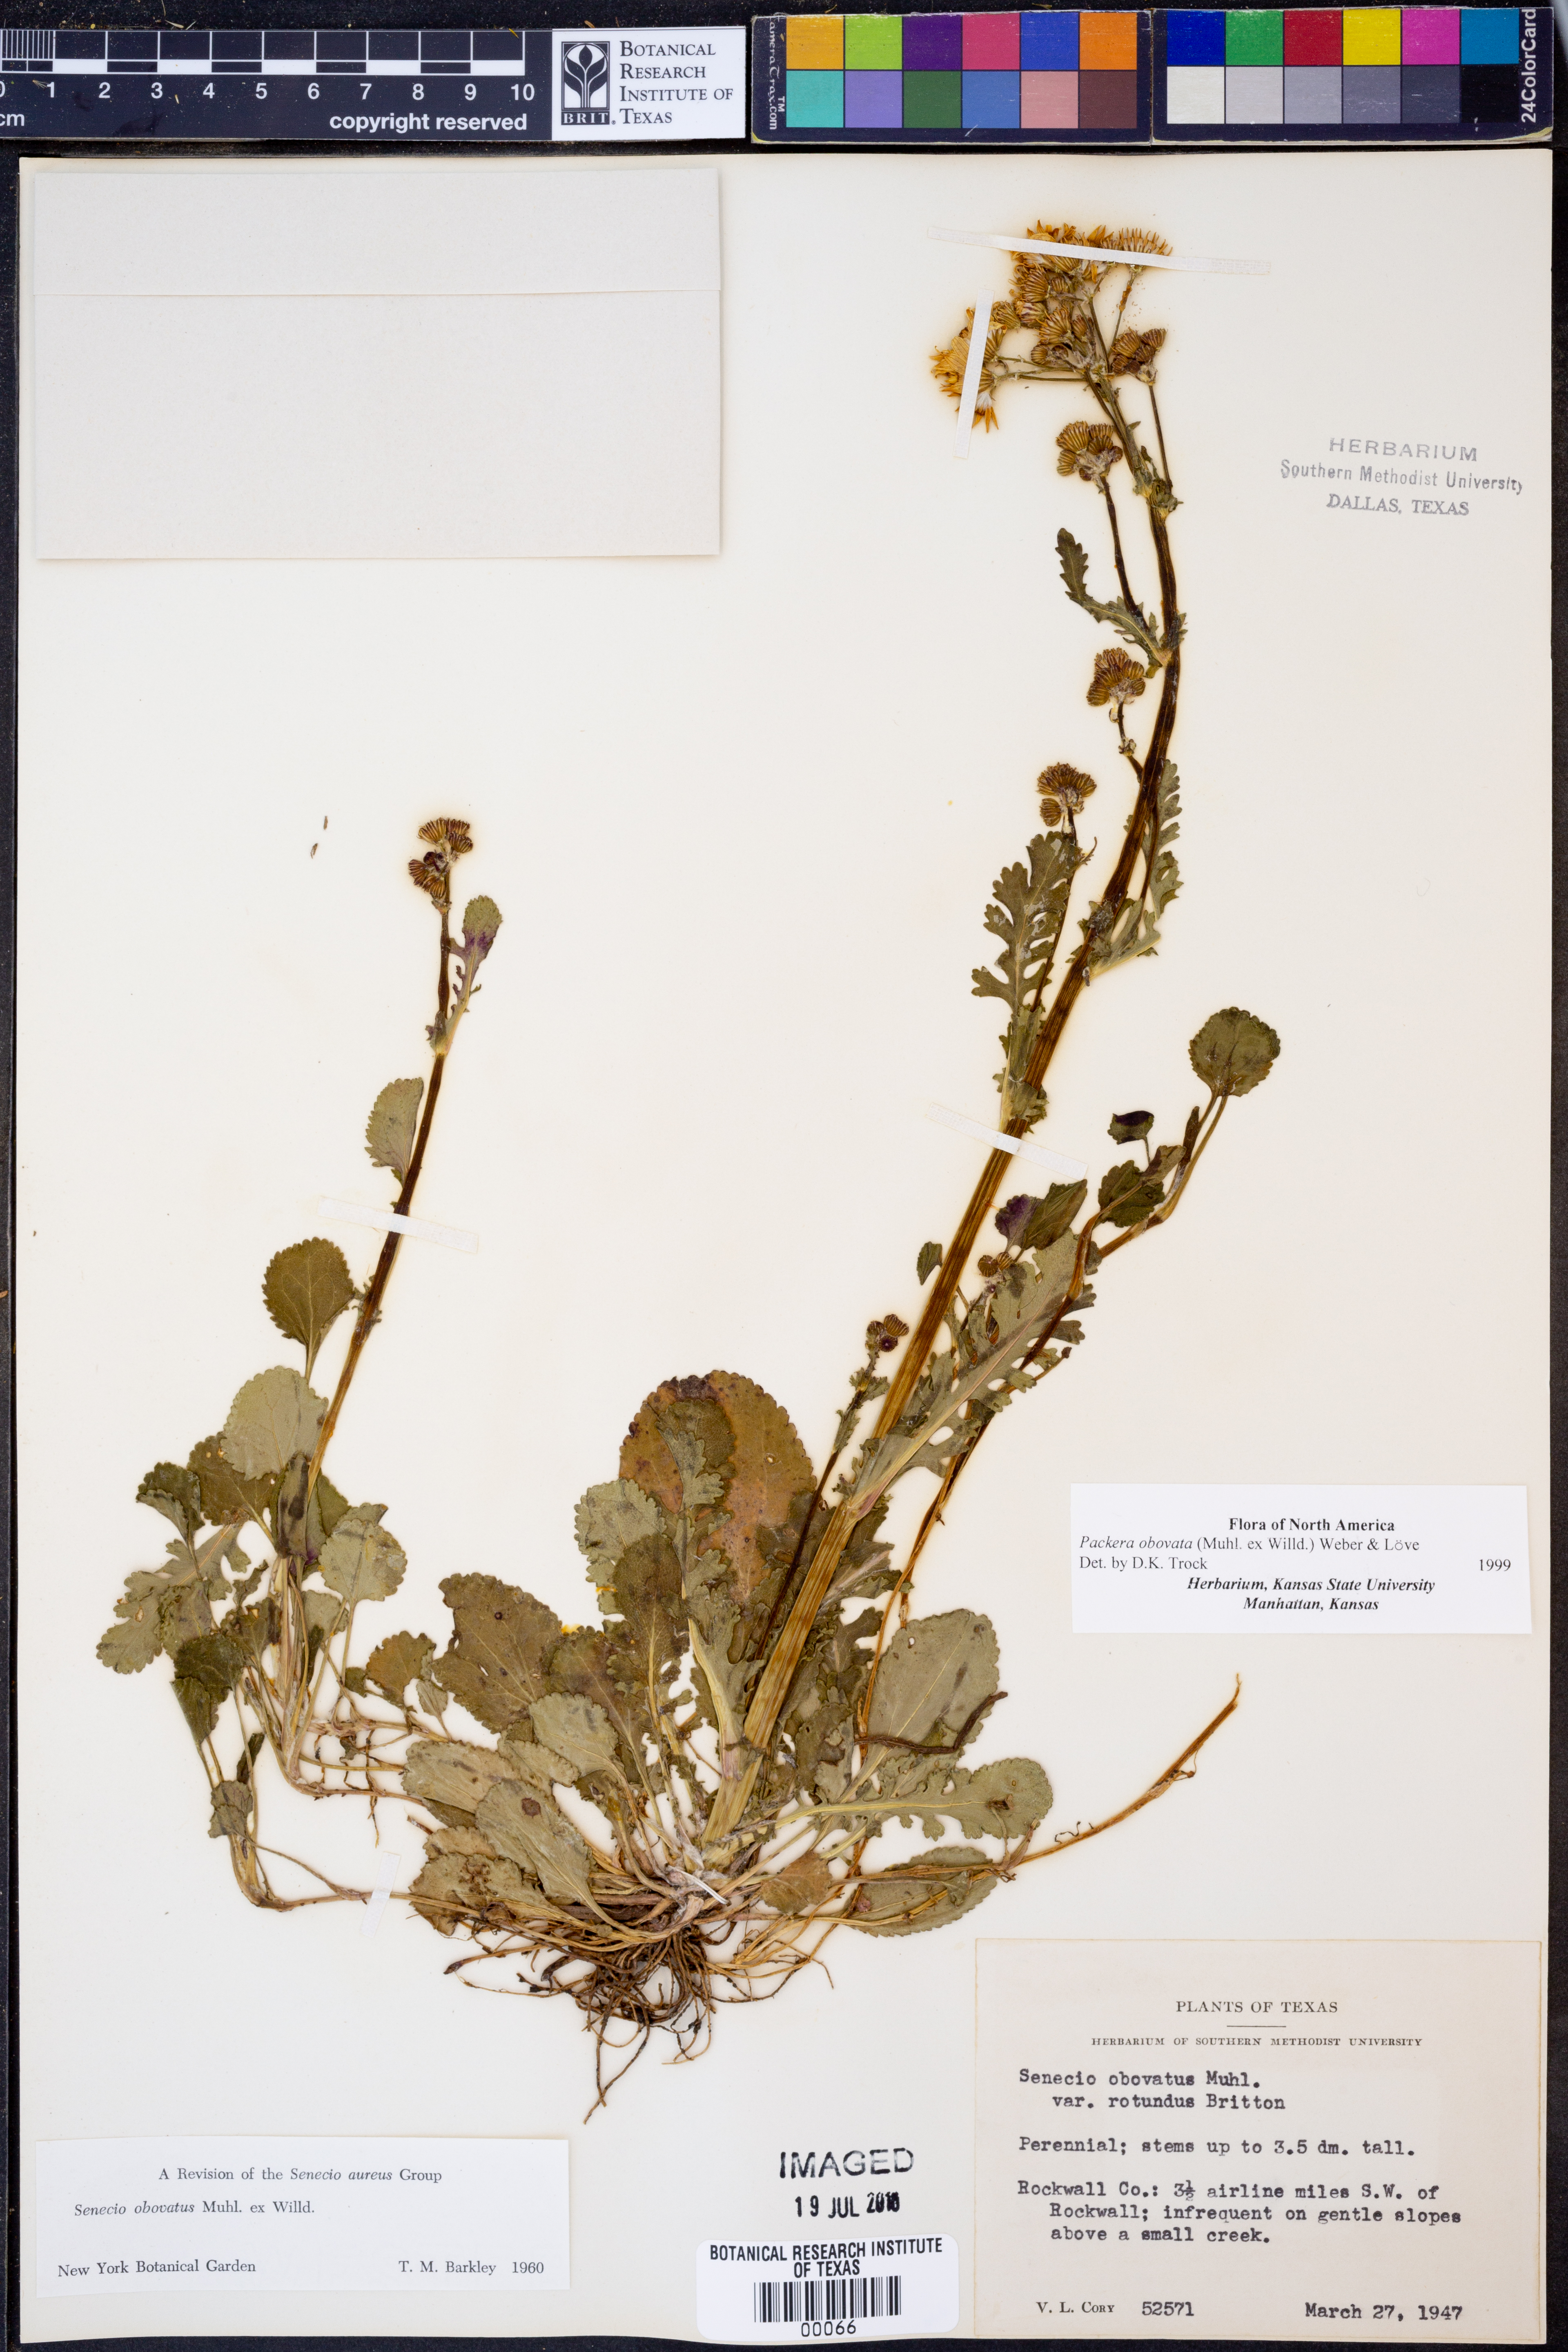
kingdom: Plantae
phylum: Tracheophyta
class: Magnoliopsida
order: Asterales
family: Asteraceae
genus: Packera
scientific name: Packera obovata
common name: Round-leaf ragwort
